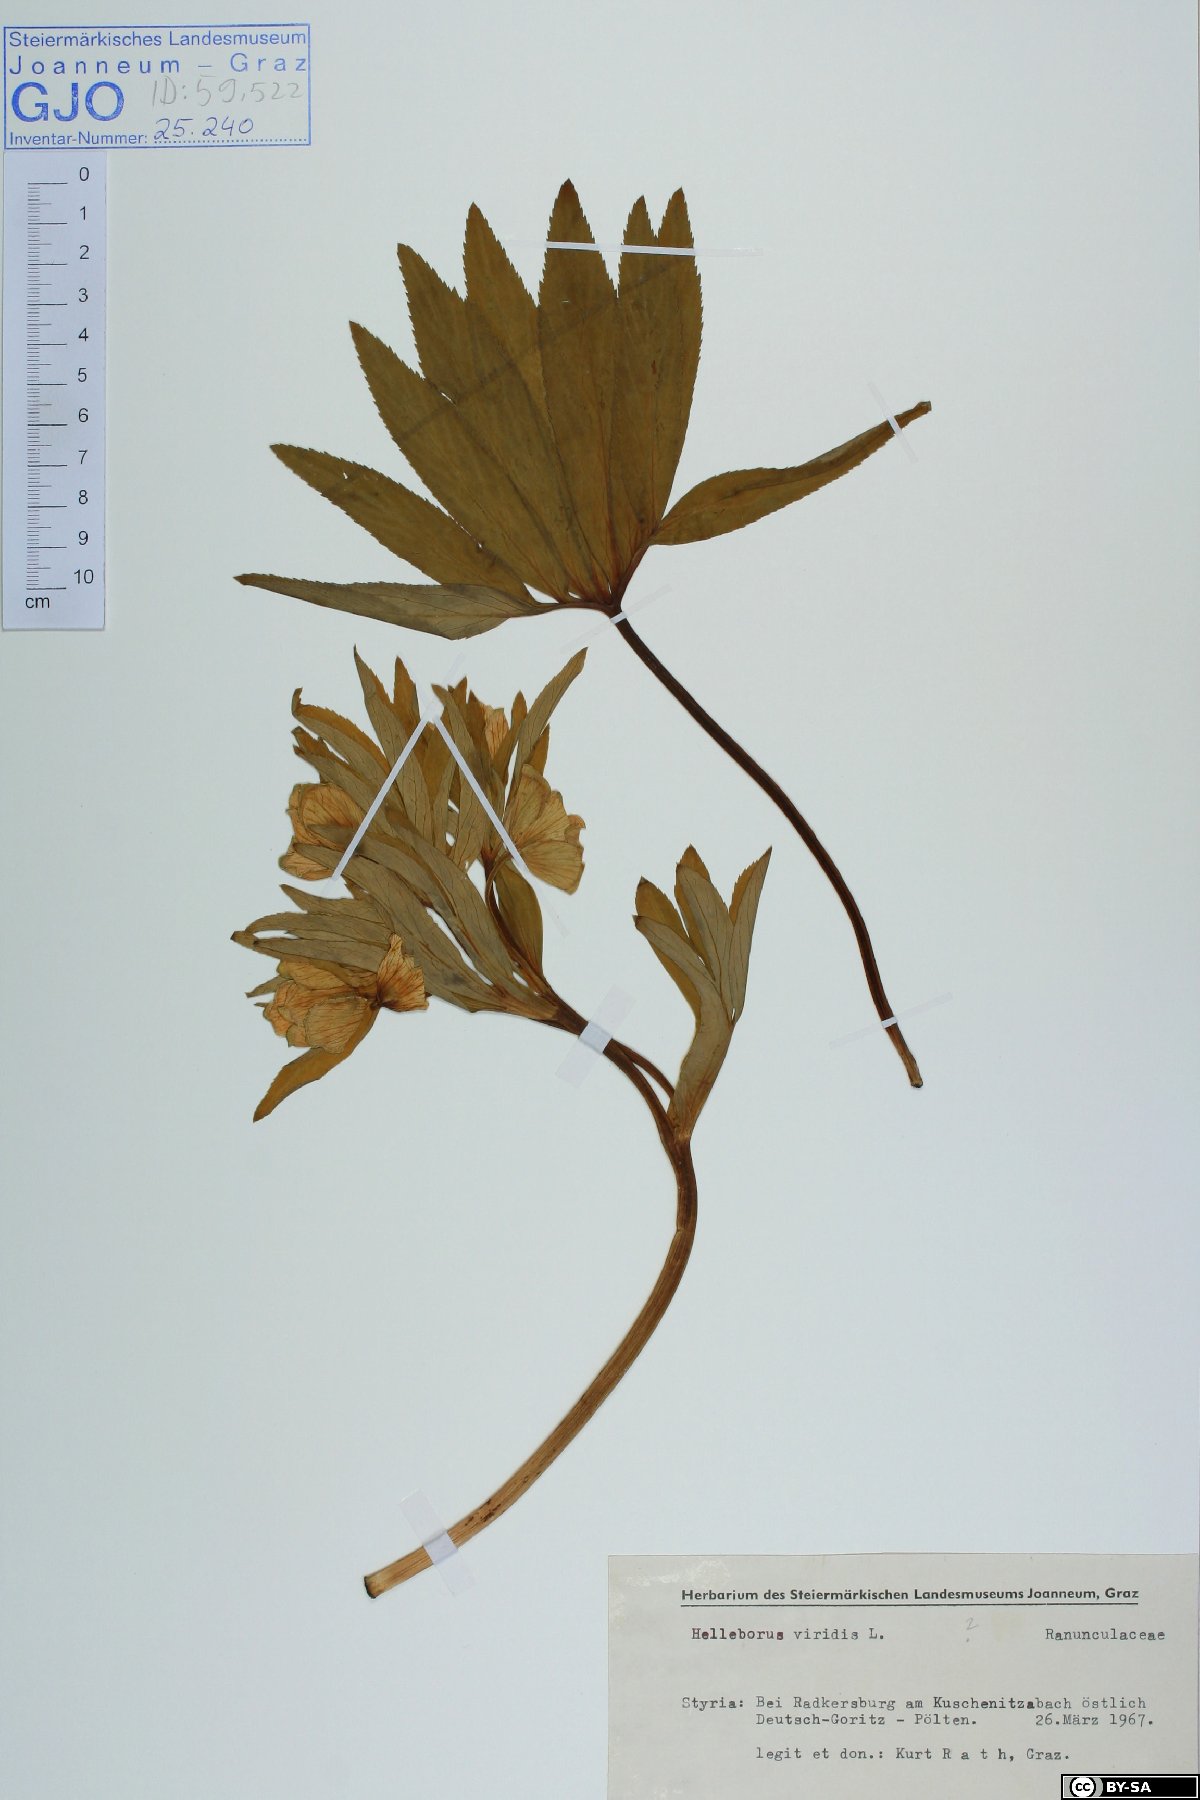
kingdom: Plantae
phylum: Tracheophyta
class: Magnoliopsida
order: Ranunculales
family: Ranunculaceae
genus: Helleborus
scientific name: Helleborus dumetorum
